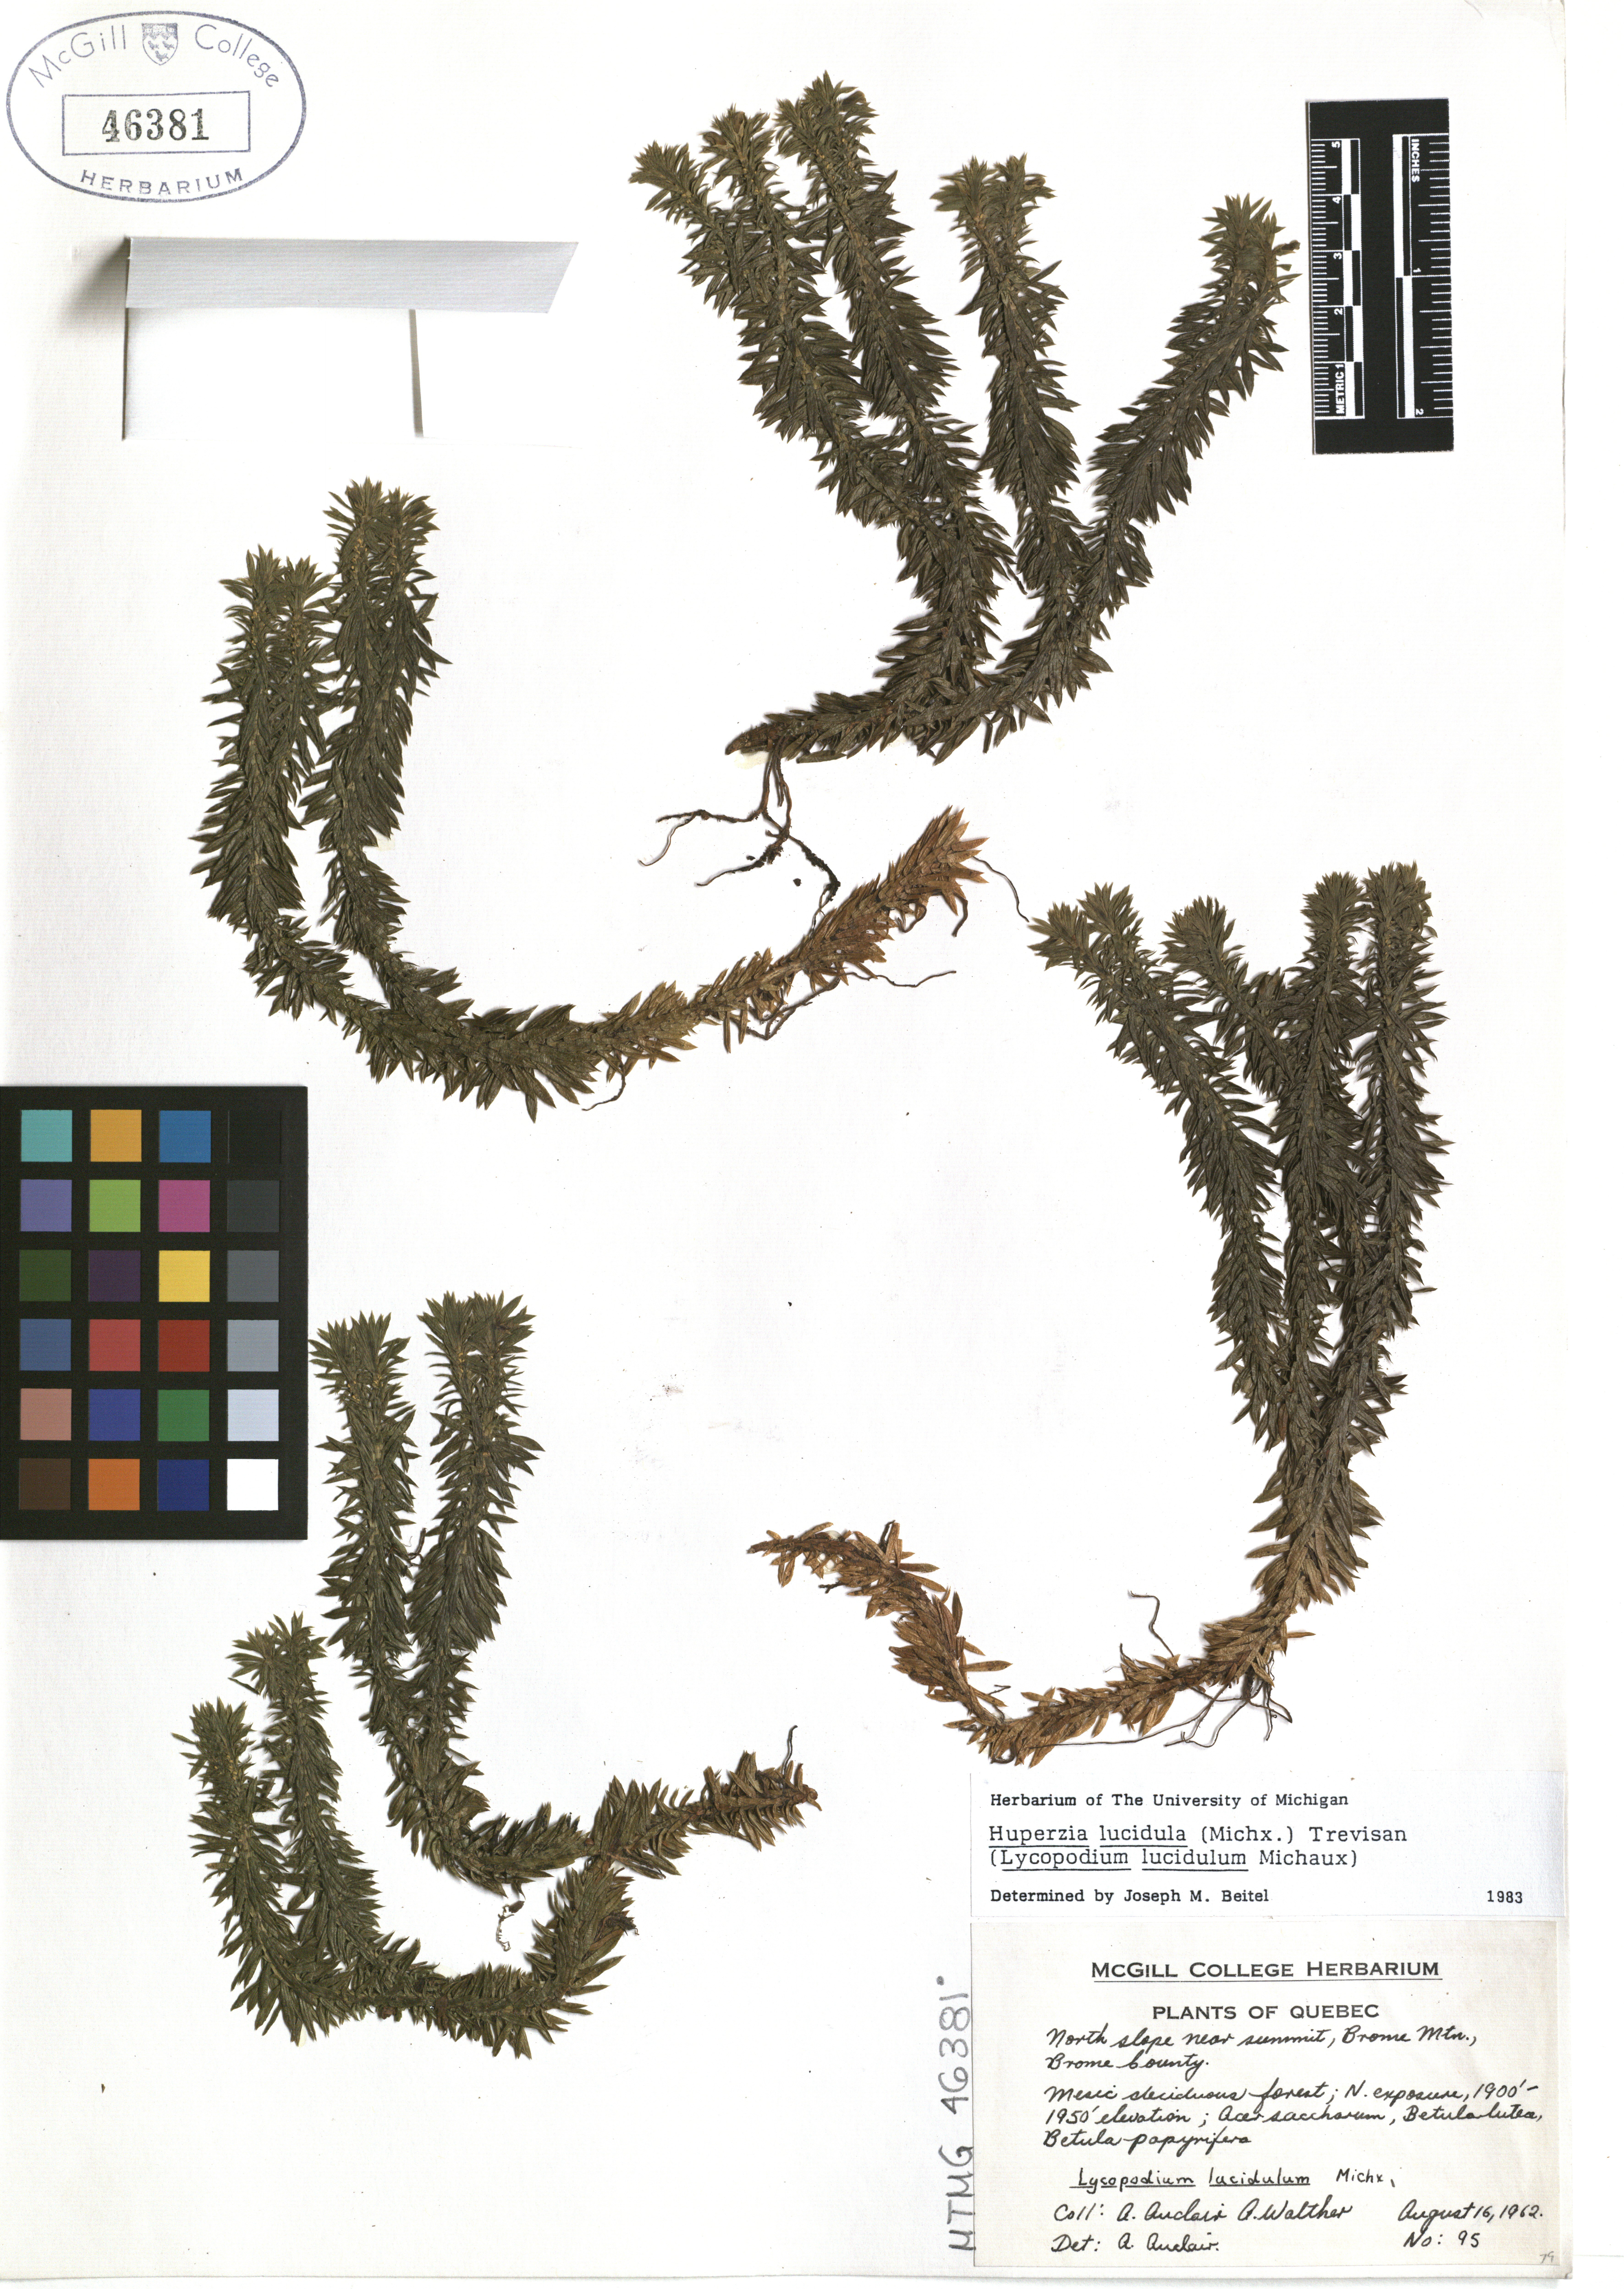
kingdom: Plantae
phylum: Tracheophyta
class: Lycopodiopsida
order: Lycopodiales
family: Lycopodiaceae
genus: Huperzia
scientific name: Huperzia lucidula
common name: Shining clubmoss
